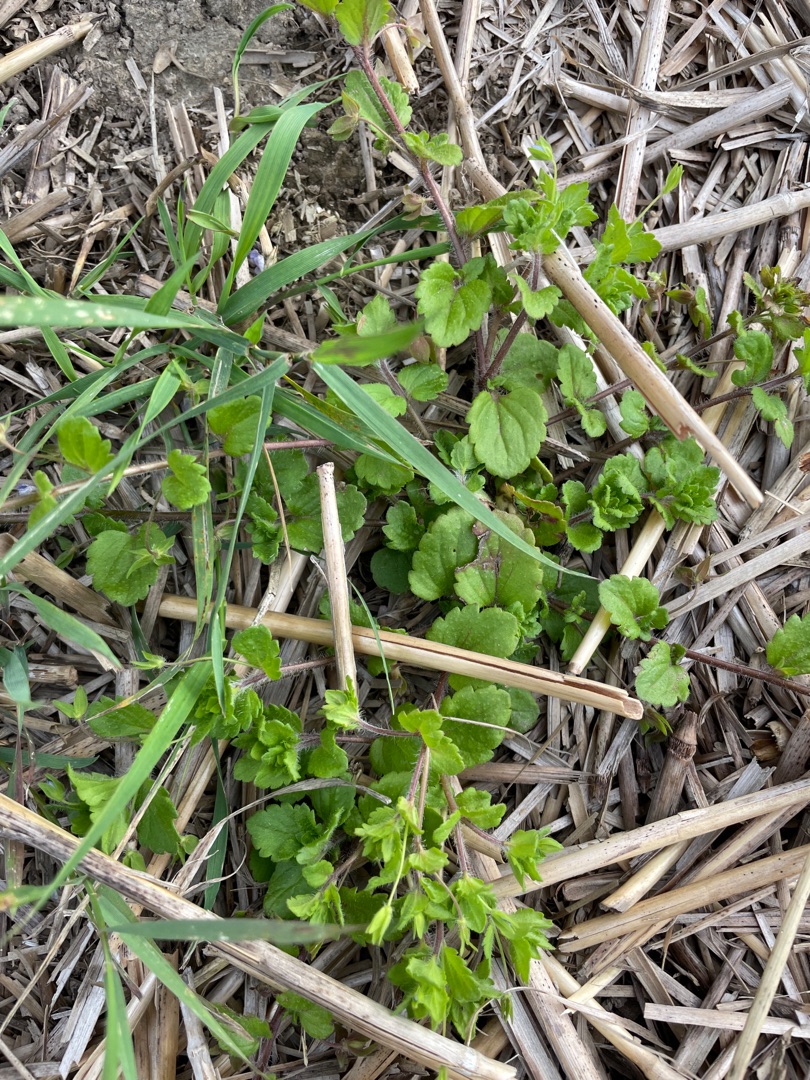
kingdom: Plantae
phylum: Tracheophyta
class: Magnoliopsida
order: Lamiales
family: Plantaginaceae
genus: Veronica
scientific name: Veronica persica
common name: Storkronet ærenpris
